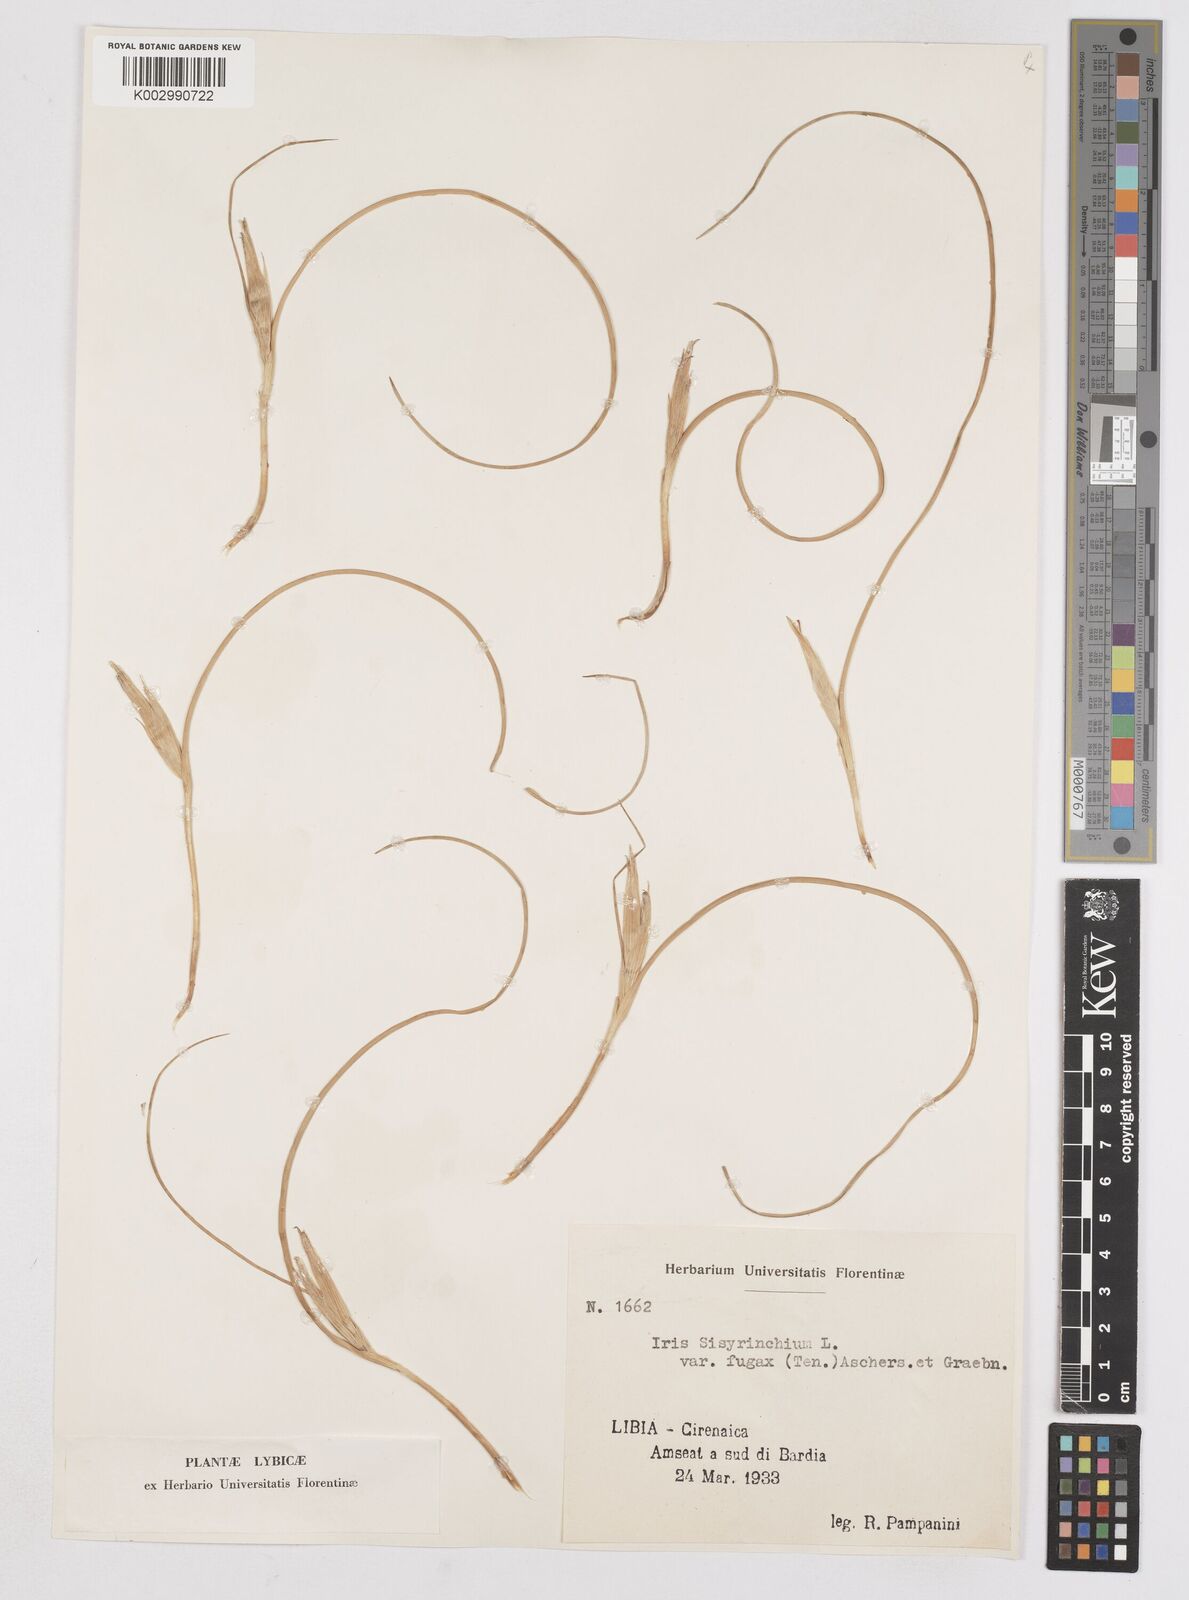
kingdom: Plantae
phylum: Tracheophyta
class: Liliopsida
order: Asparagales
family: Iridaceae
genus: Moraea
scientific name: Moraea sisyrinchium
